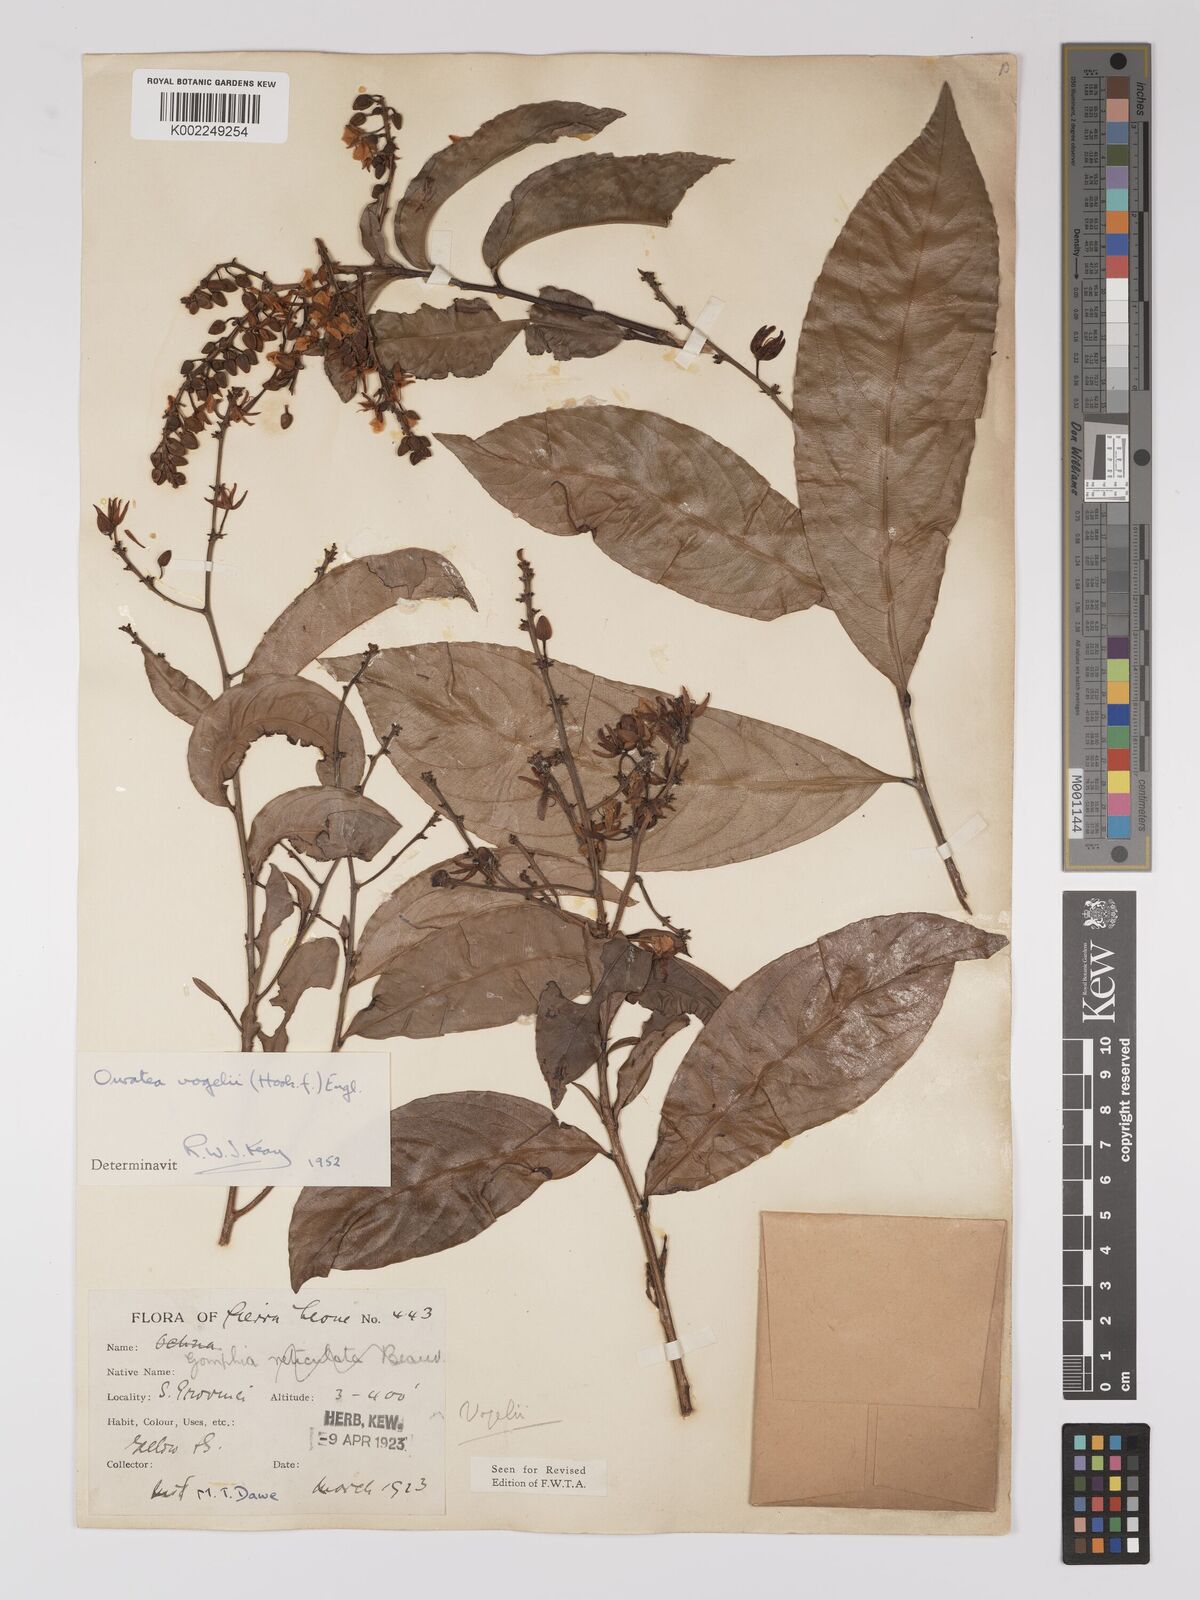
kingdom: Plantae
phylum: Tracheophyta
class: Magnoliopsida
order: Malpighiales
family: Ochnaceae
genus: Campylospermum
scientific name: Campylospermum vogelii
